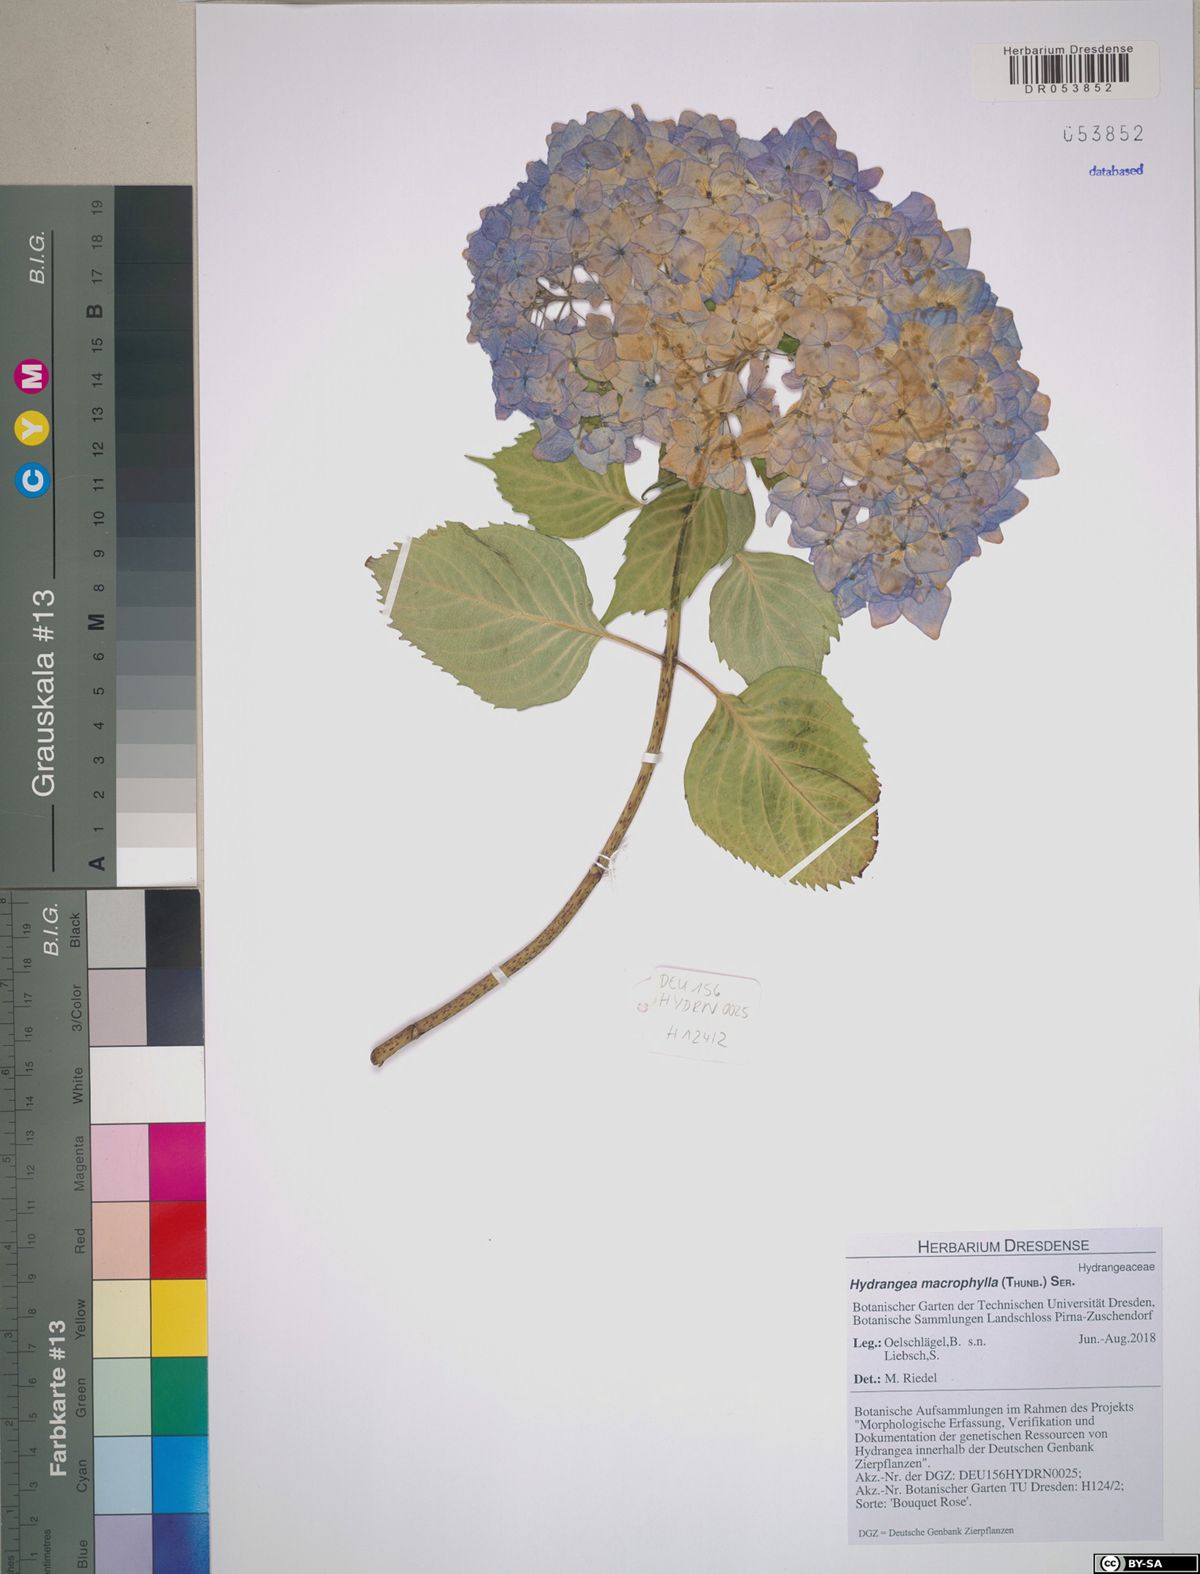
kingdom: Plantae
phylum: Tracheophyta
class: Magnoliopsida
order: Cornales
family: Hydrangeaceae
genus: Hydrangea
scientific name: Hydrangea macrophylla
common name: Hydrangea
